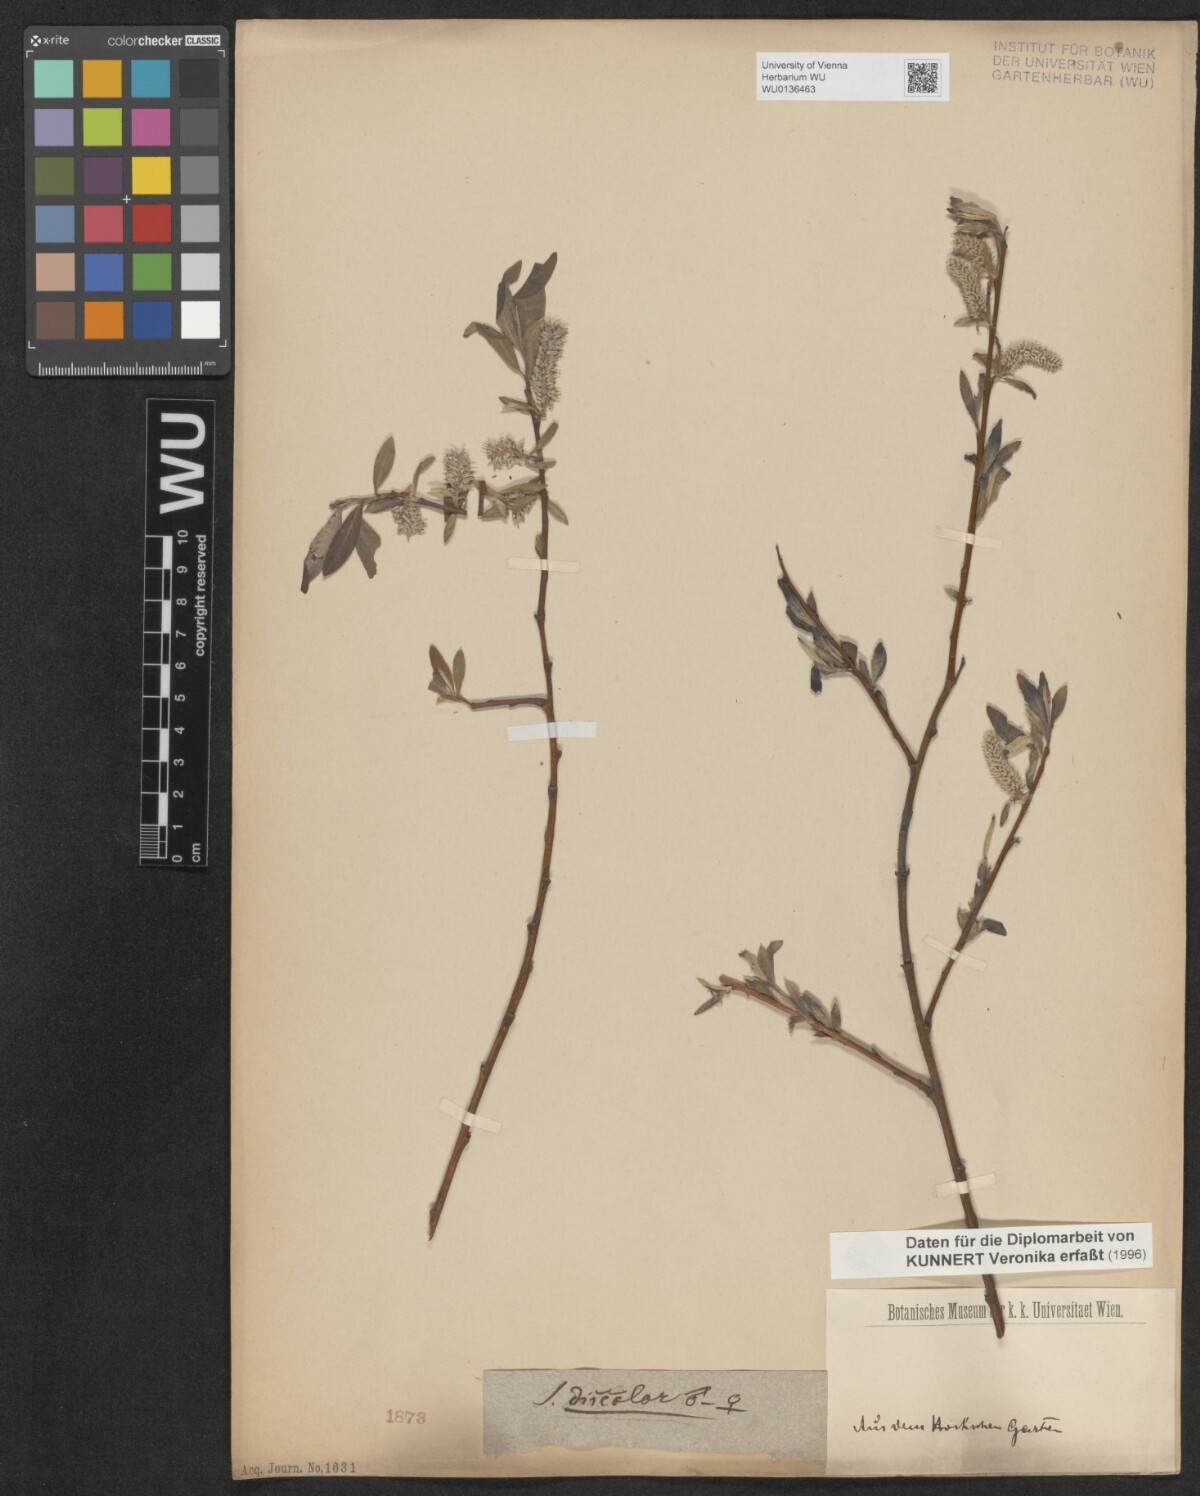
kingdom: Plantae
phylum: Tracheophyta
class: Magnoliopsida
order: Malpighiales
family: Salicaceae
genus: Salix
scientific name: Salix discolor
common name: Glaucous willow
